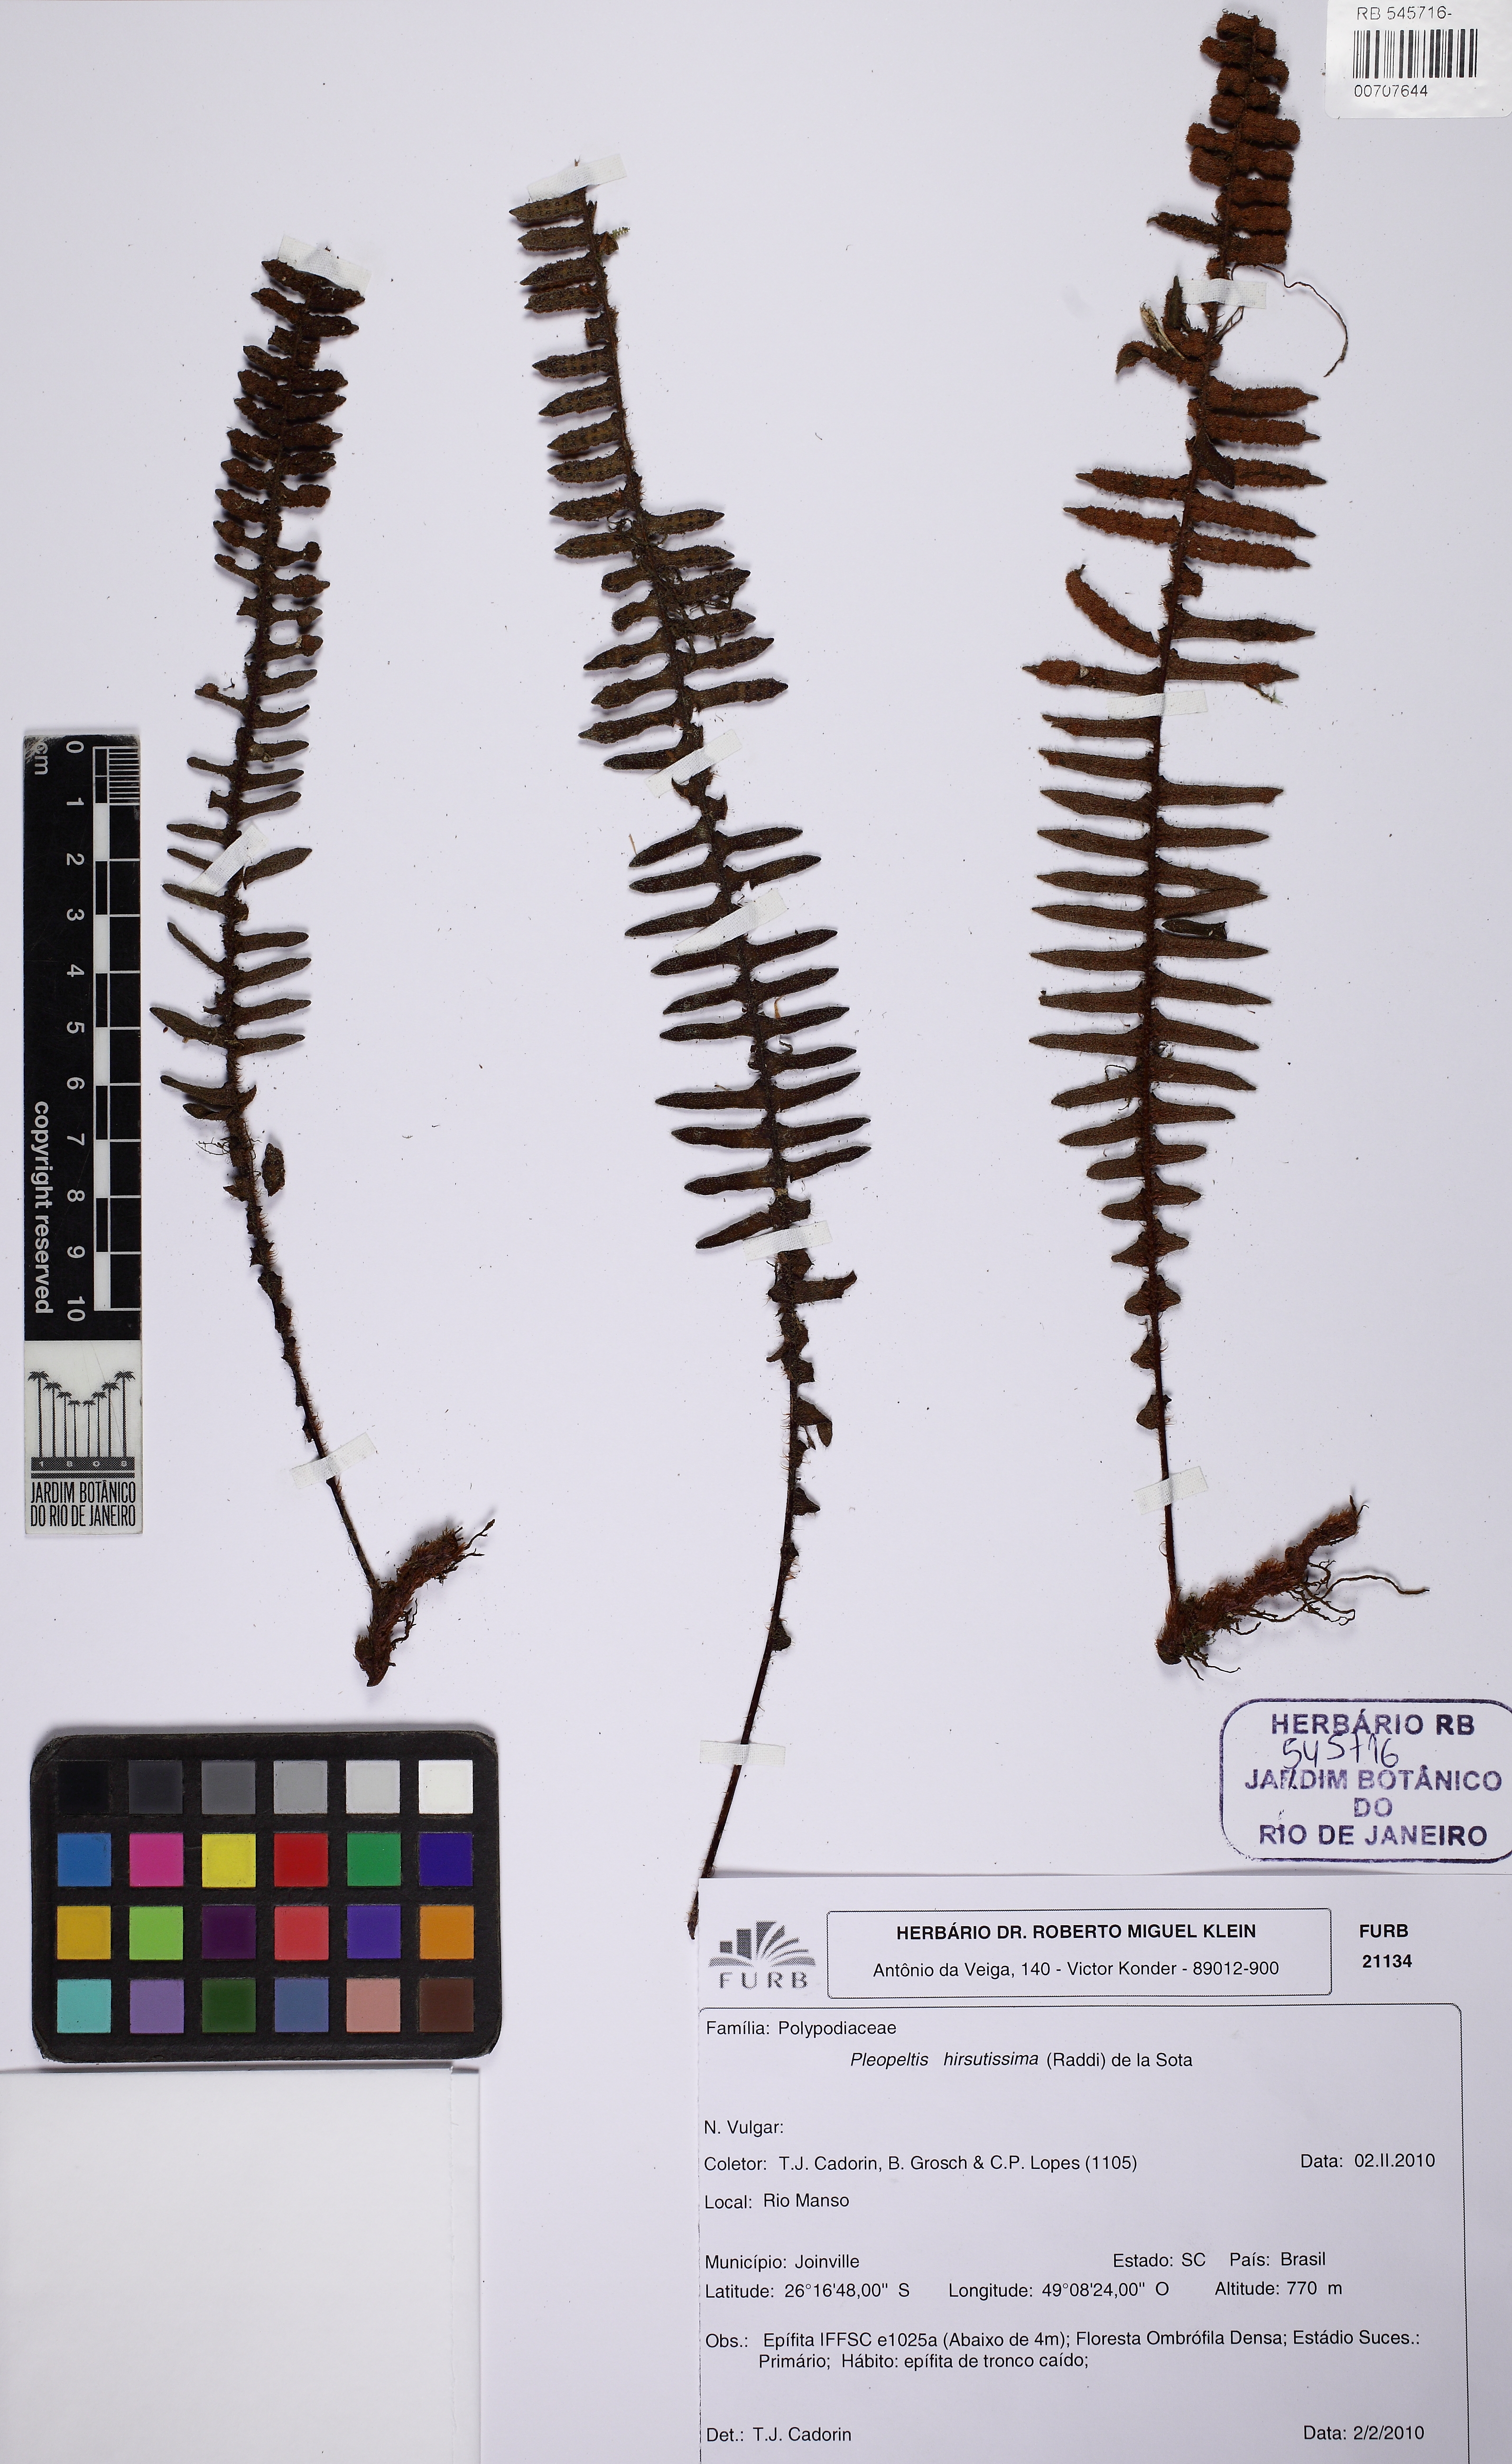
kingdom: Plantae
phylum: Tracheophyta
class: Polypodiopsida
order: Polypodiales
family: Polypodiaceae
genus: Pleopeltis
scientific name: Pleopeltis hirsutissima
